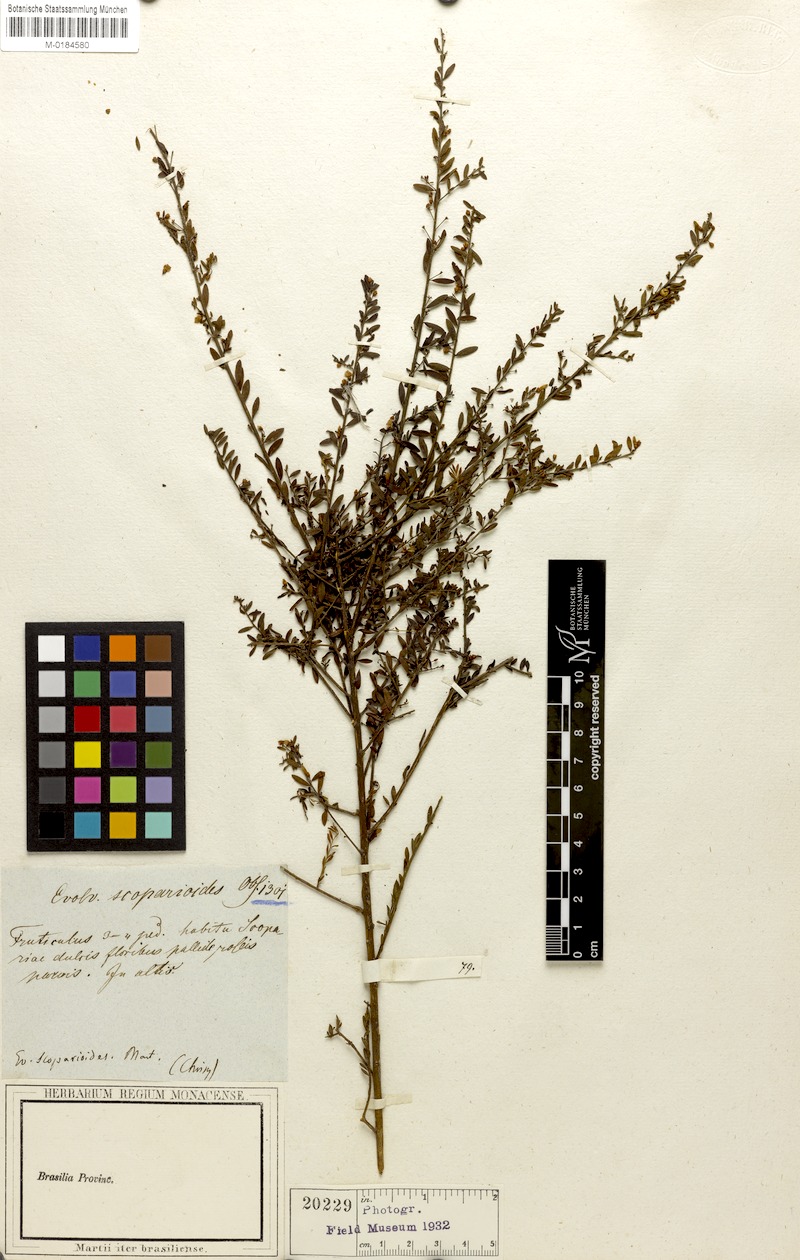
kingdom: Plantae
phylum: Tracheophyta
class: Magnoliopsida
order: Solanales
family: Convolvulaceae
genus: Evolvulus
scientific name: Evolvulus scoparioides
